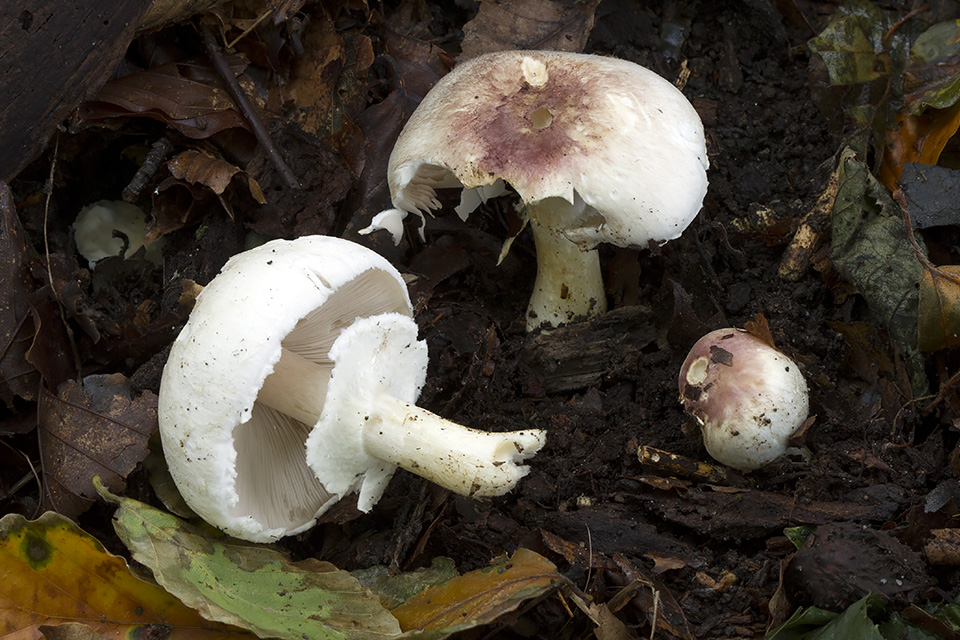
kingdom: Fungi
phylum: Basidiomycota
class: Agaricomycetes
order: Agaricales
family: Agaricaceae
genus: Agaricus
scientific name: Agaricus brunneolus
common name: purpur-champignon
